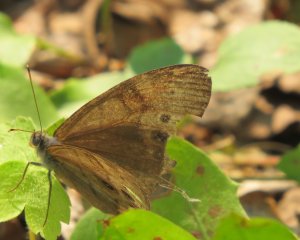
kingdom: Animalia
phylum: Arthropoda
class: Insecta
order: Lepidoptera
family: Nymphalidae
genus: Lethe
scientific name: Lethe anthedon
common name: Northern Pearly-Eye
